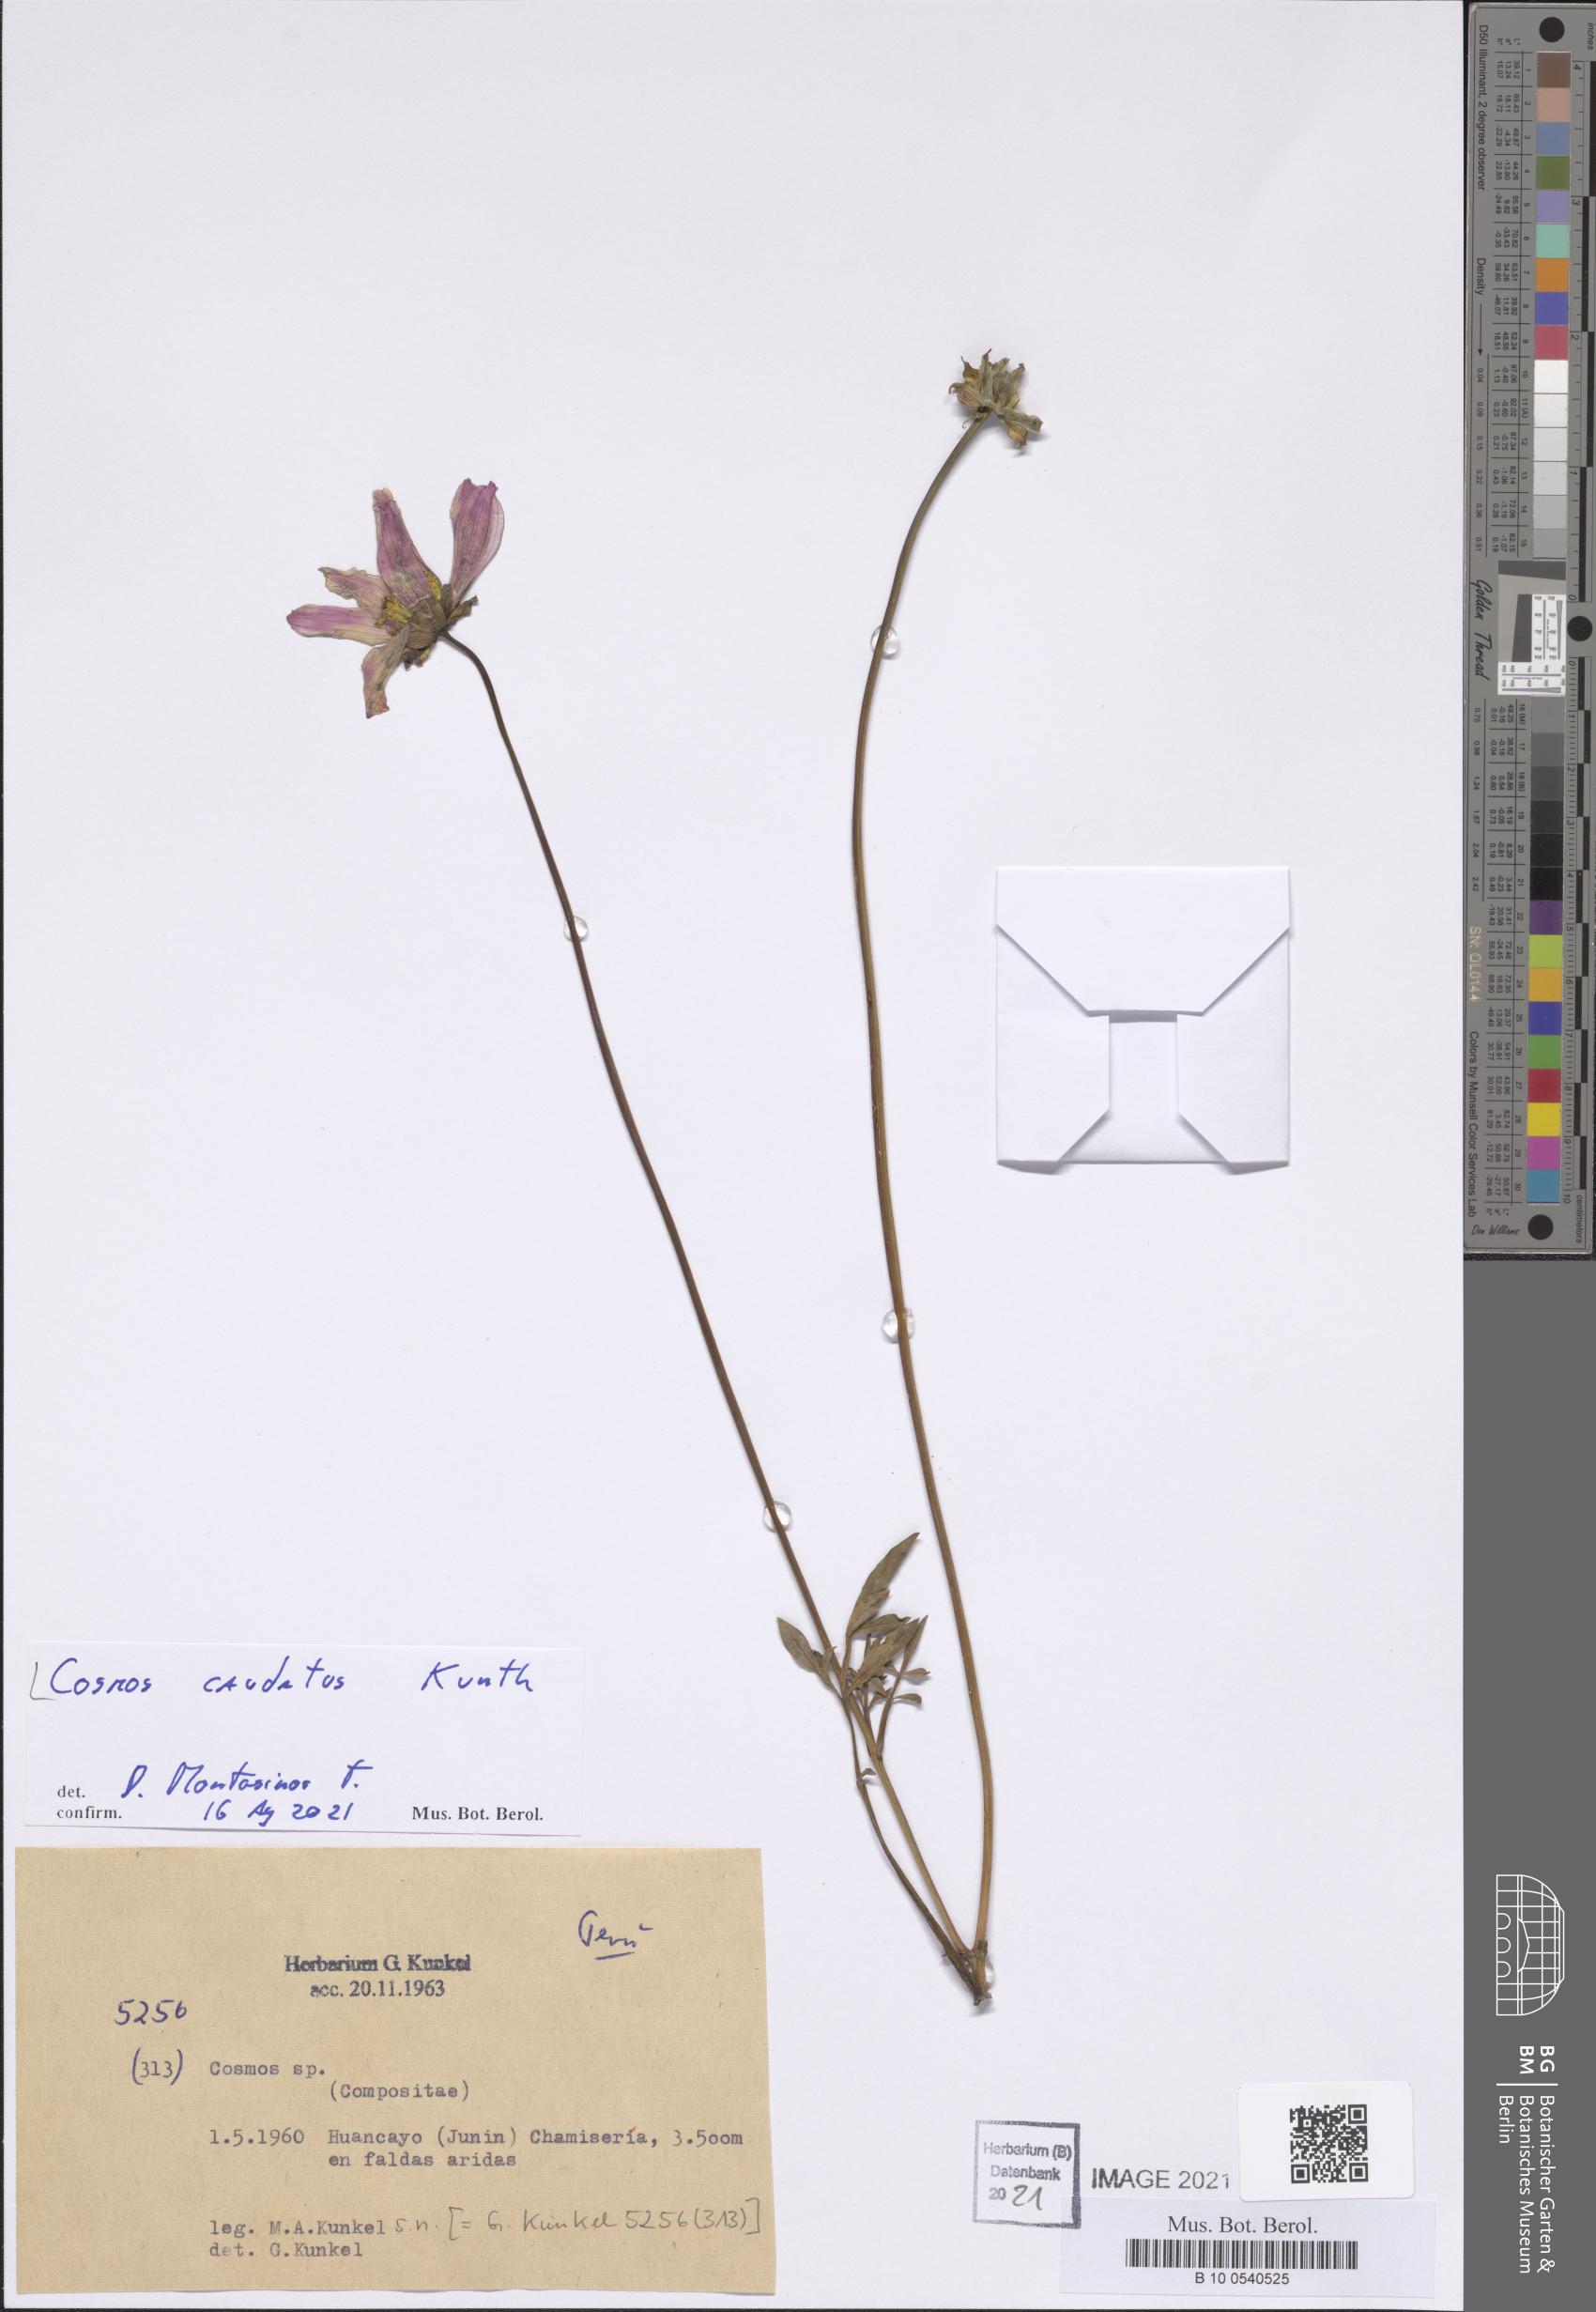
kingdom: Plantae
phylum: Tracheophyta
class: Magnoliopsida
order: Asterales
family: Asteraceae
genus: Cosmos
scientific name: Cosmos caudatus
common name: Wild cosmos
